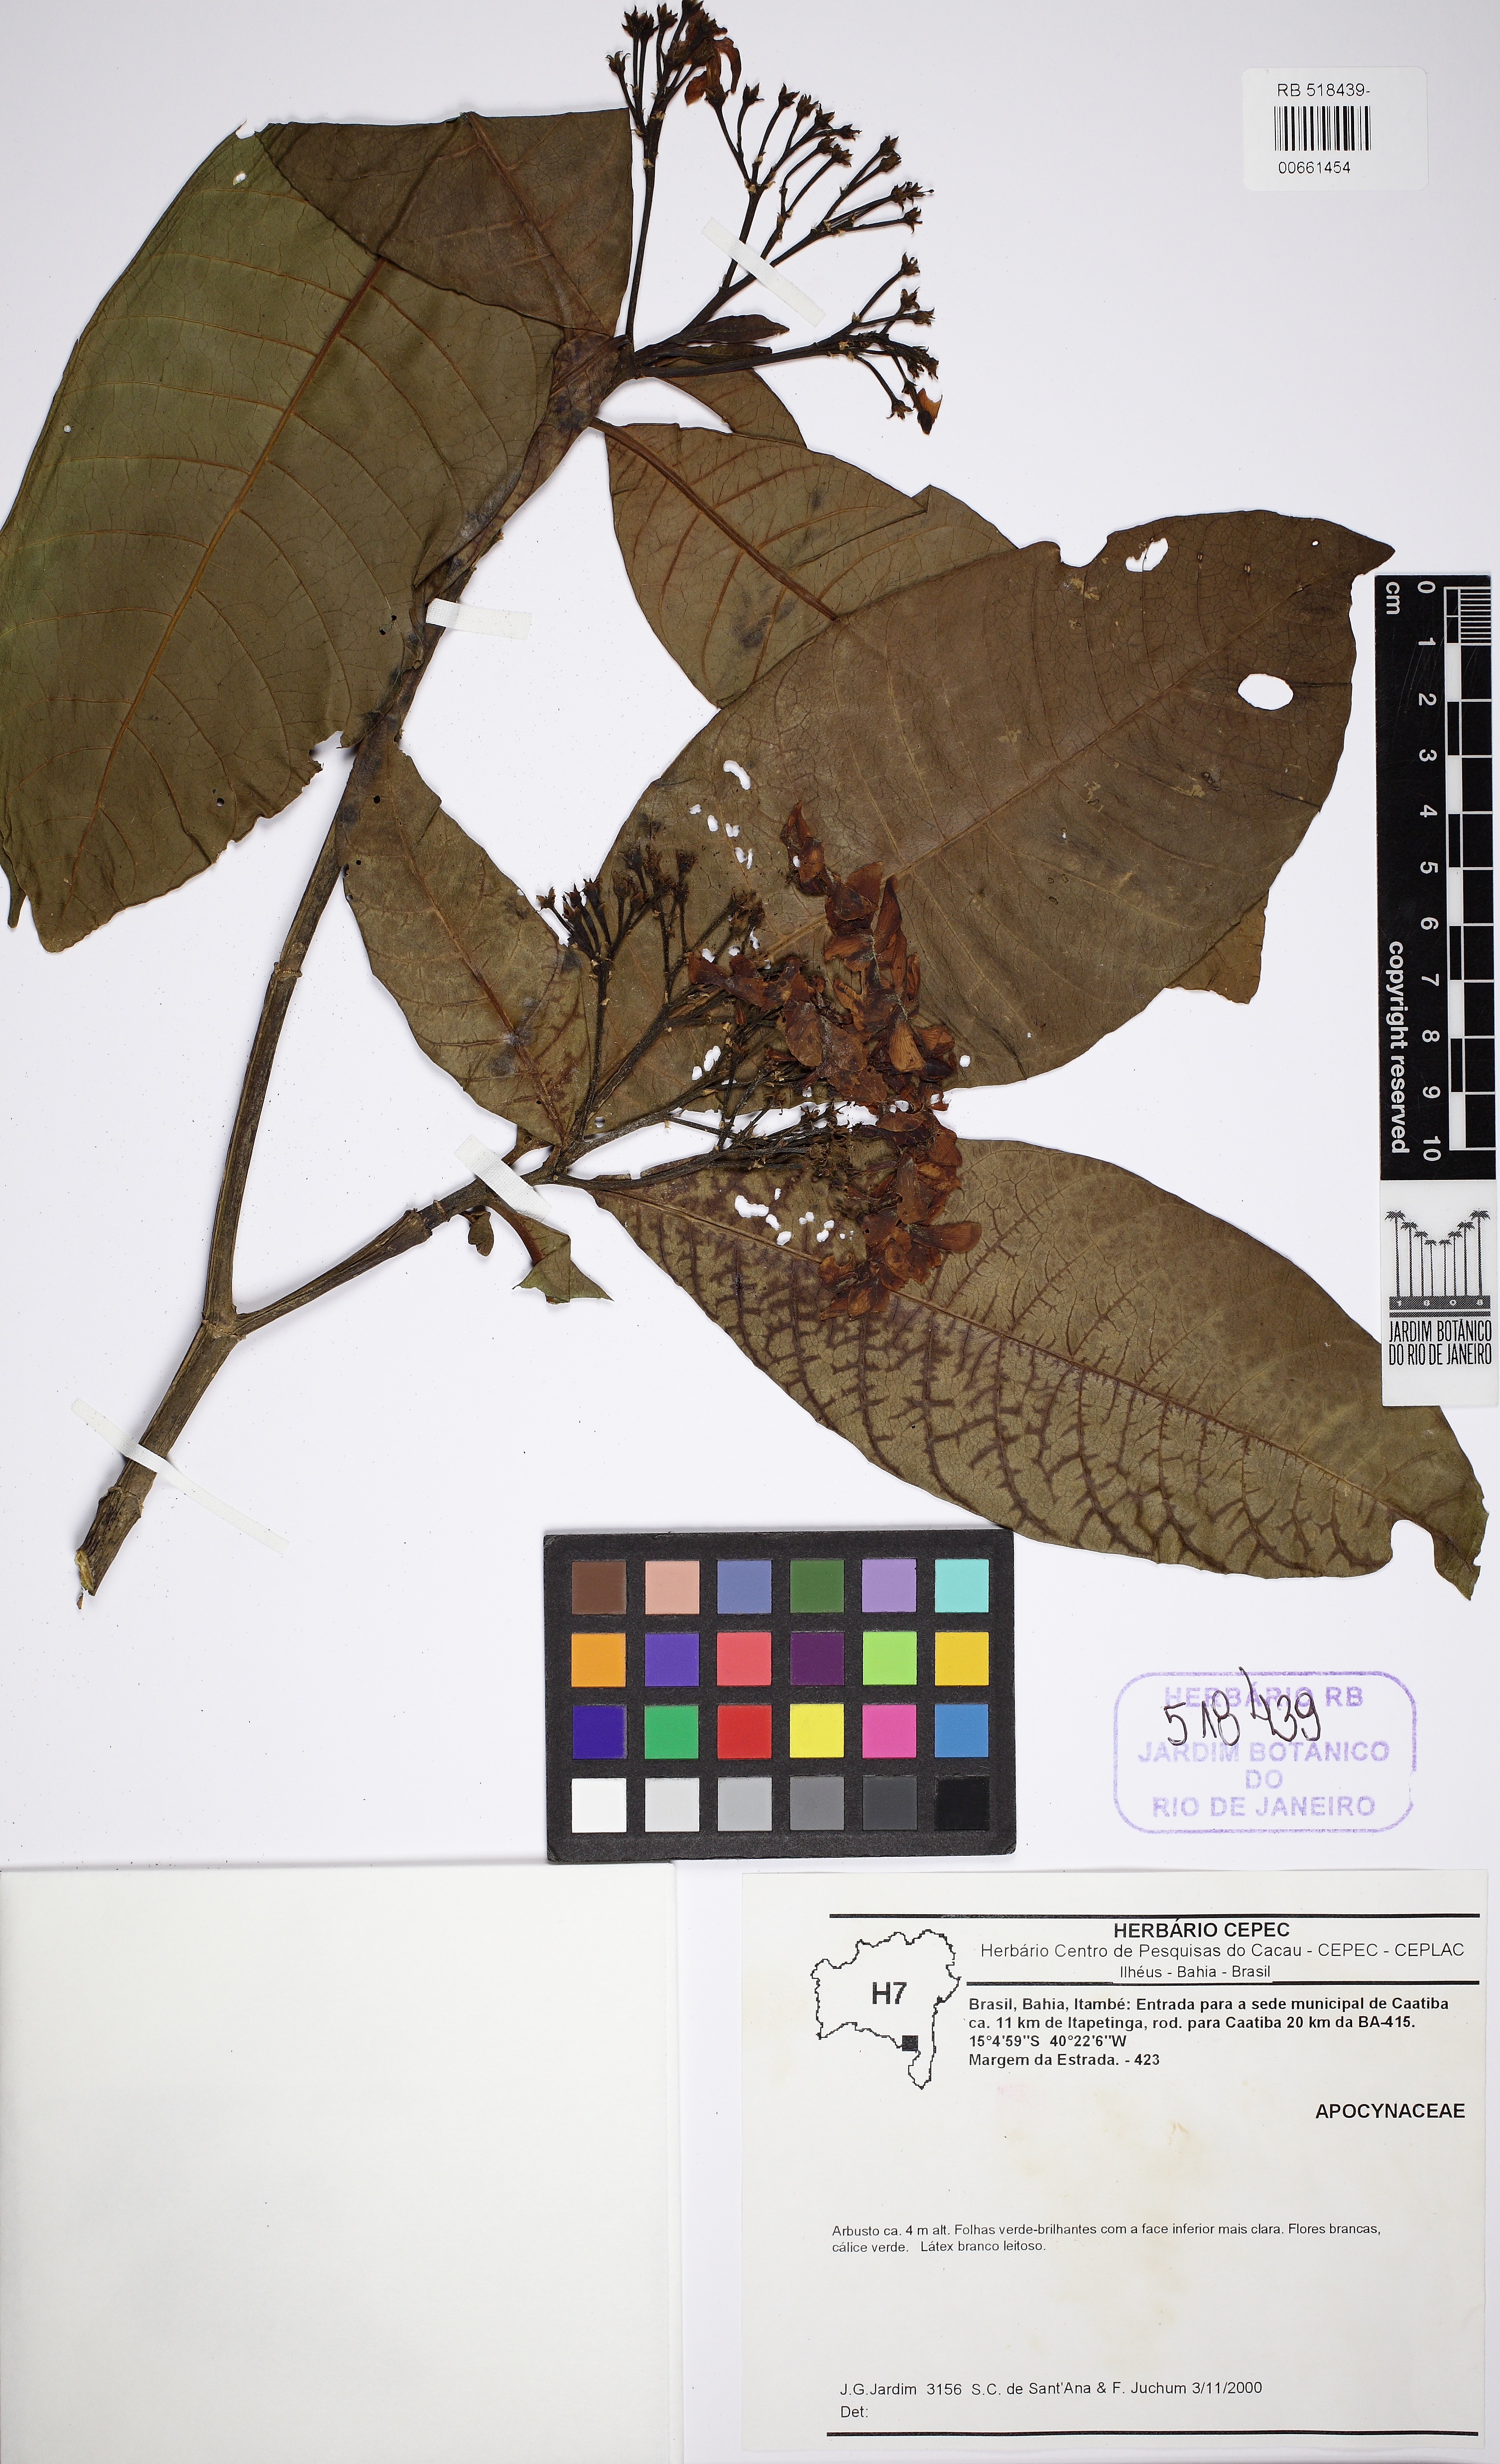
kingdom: Plantae
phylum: Tracheophyta
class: Magnoliopsida
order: Gentianales
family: Apocynaceae
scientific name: Apocynaceae
